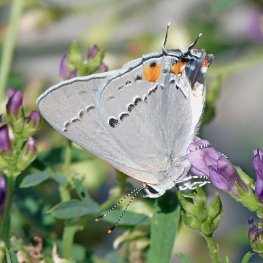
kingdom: Animalia
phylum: Arthropoda
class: Insecta
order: Lepidoptera
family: Lycaenidae
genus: Strymon
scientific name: Strymon melinus
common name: Gray Hairstreak
